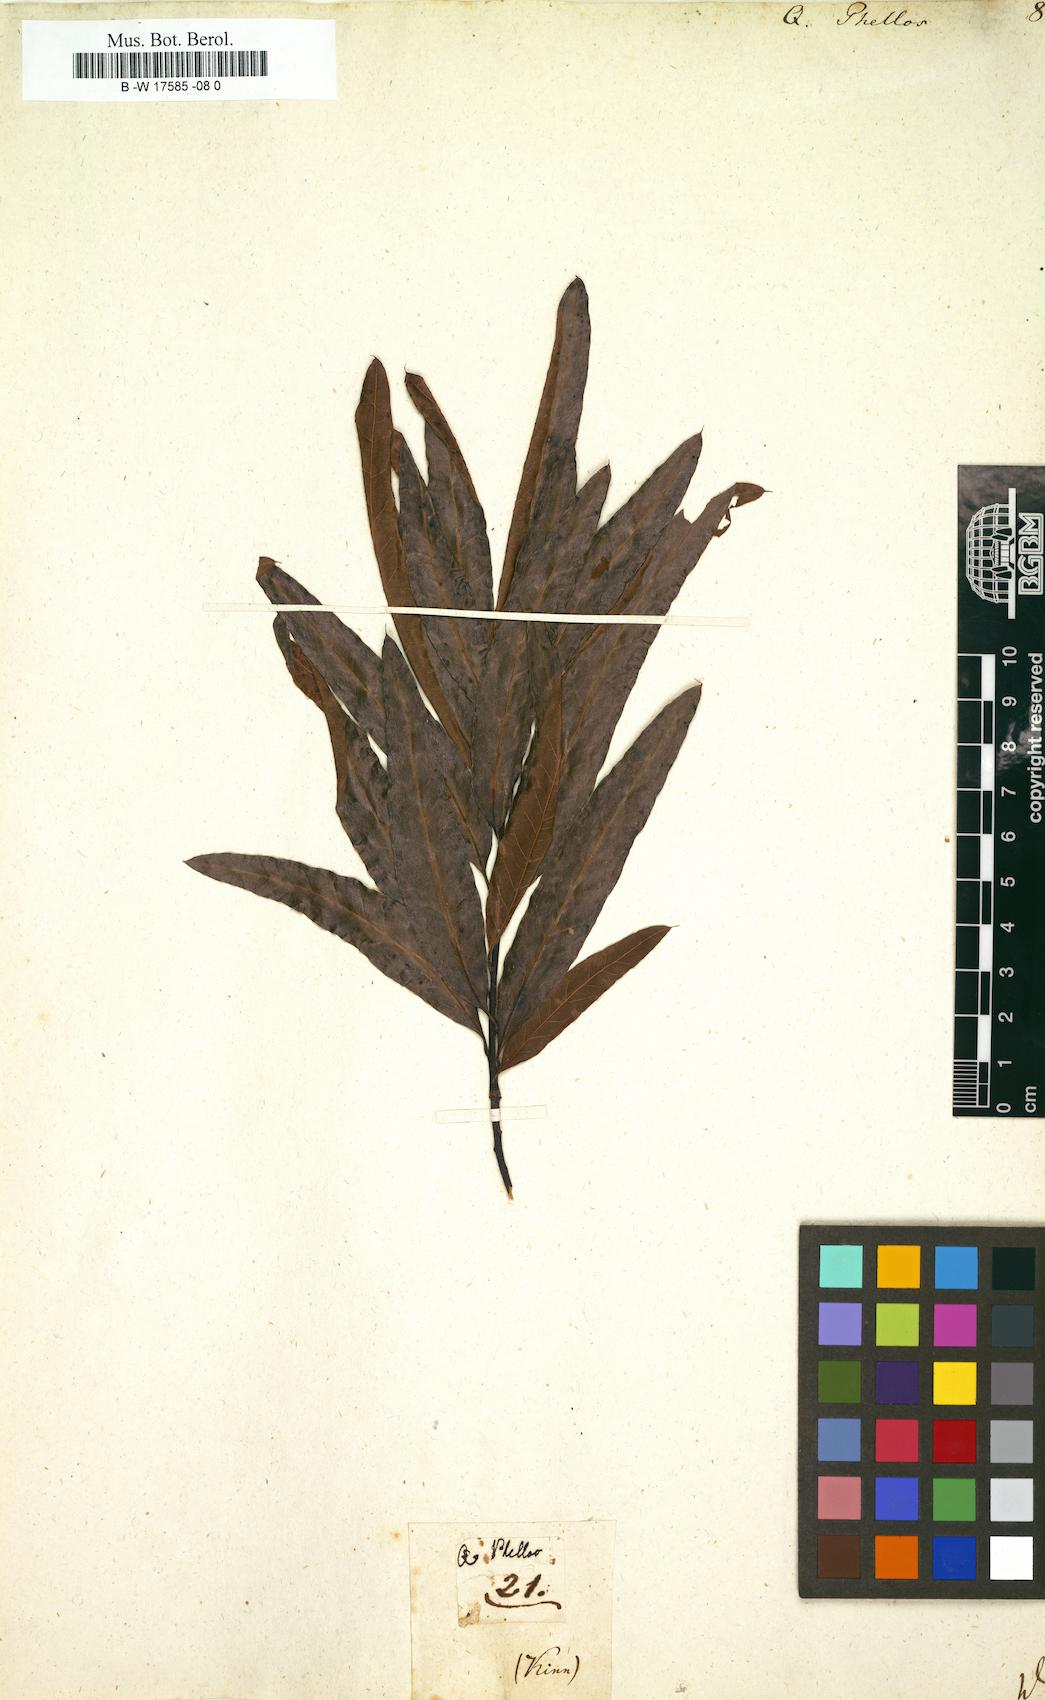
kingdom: Plantae
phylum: Tracheophyta
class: Magnoliopsida
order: Fagales
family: Fagaceae
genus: Quercus
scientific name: Quercus phellos
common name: Willow oak
